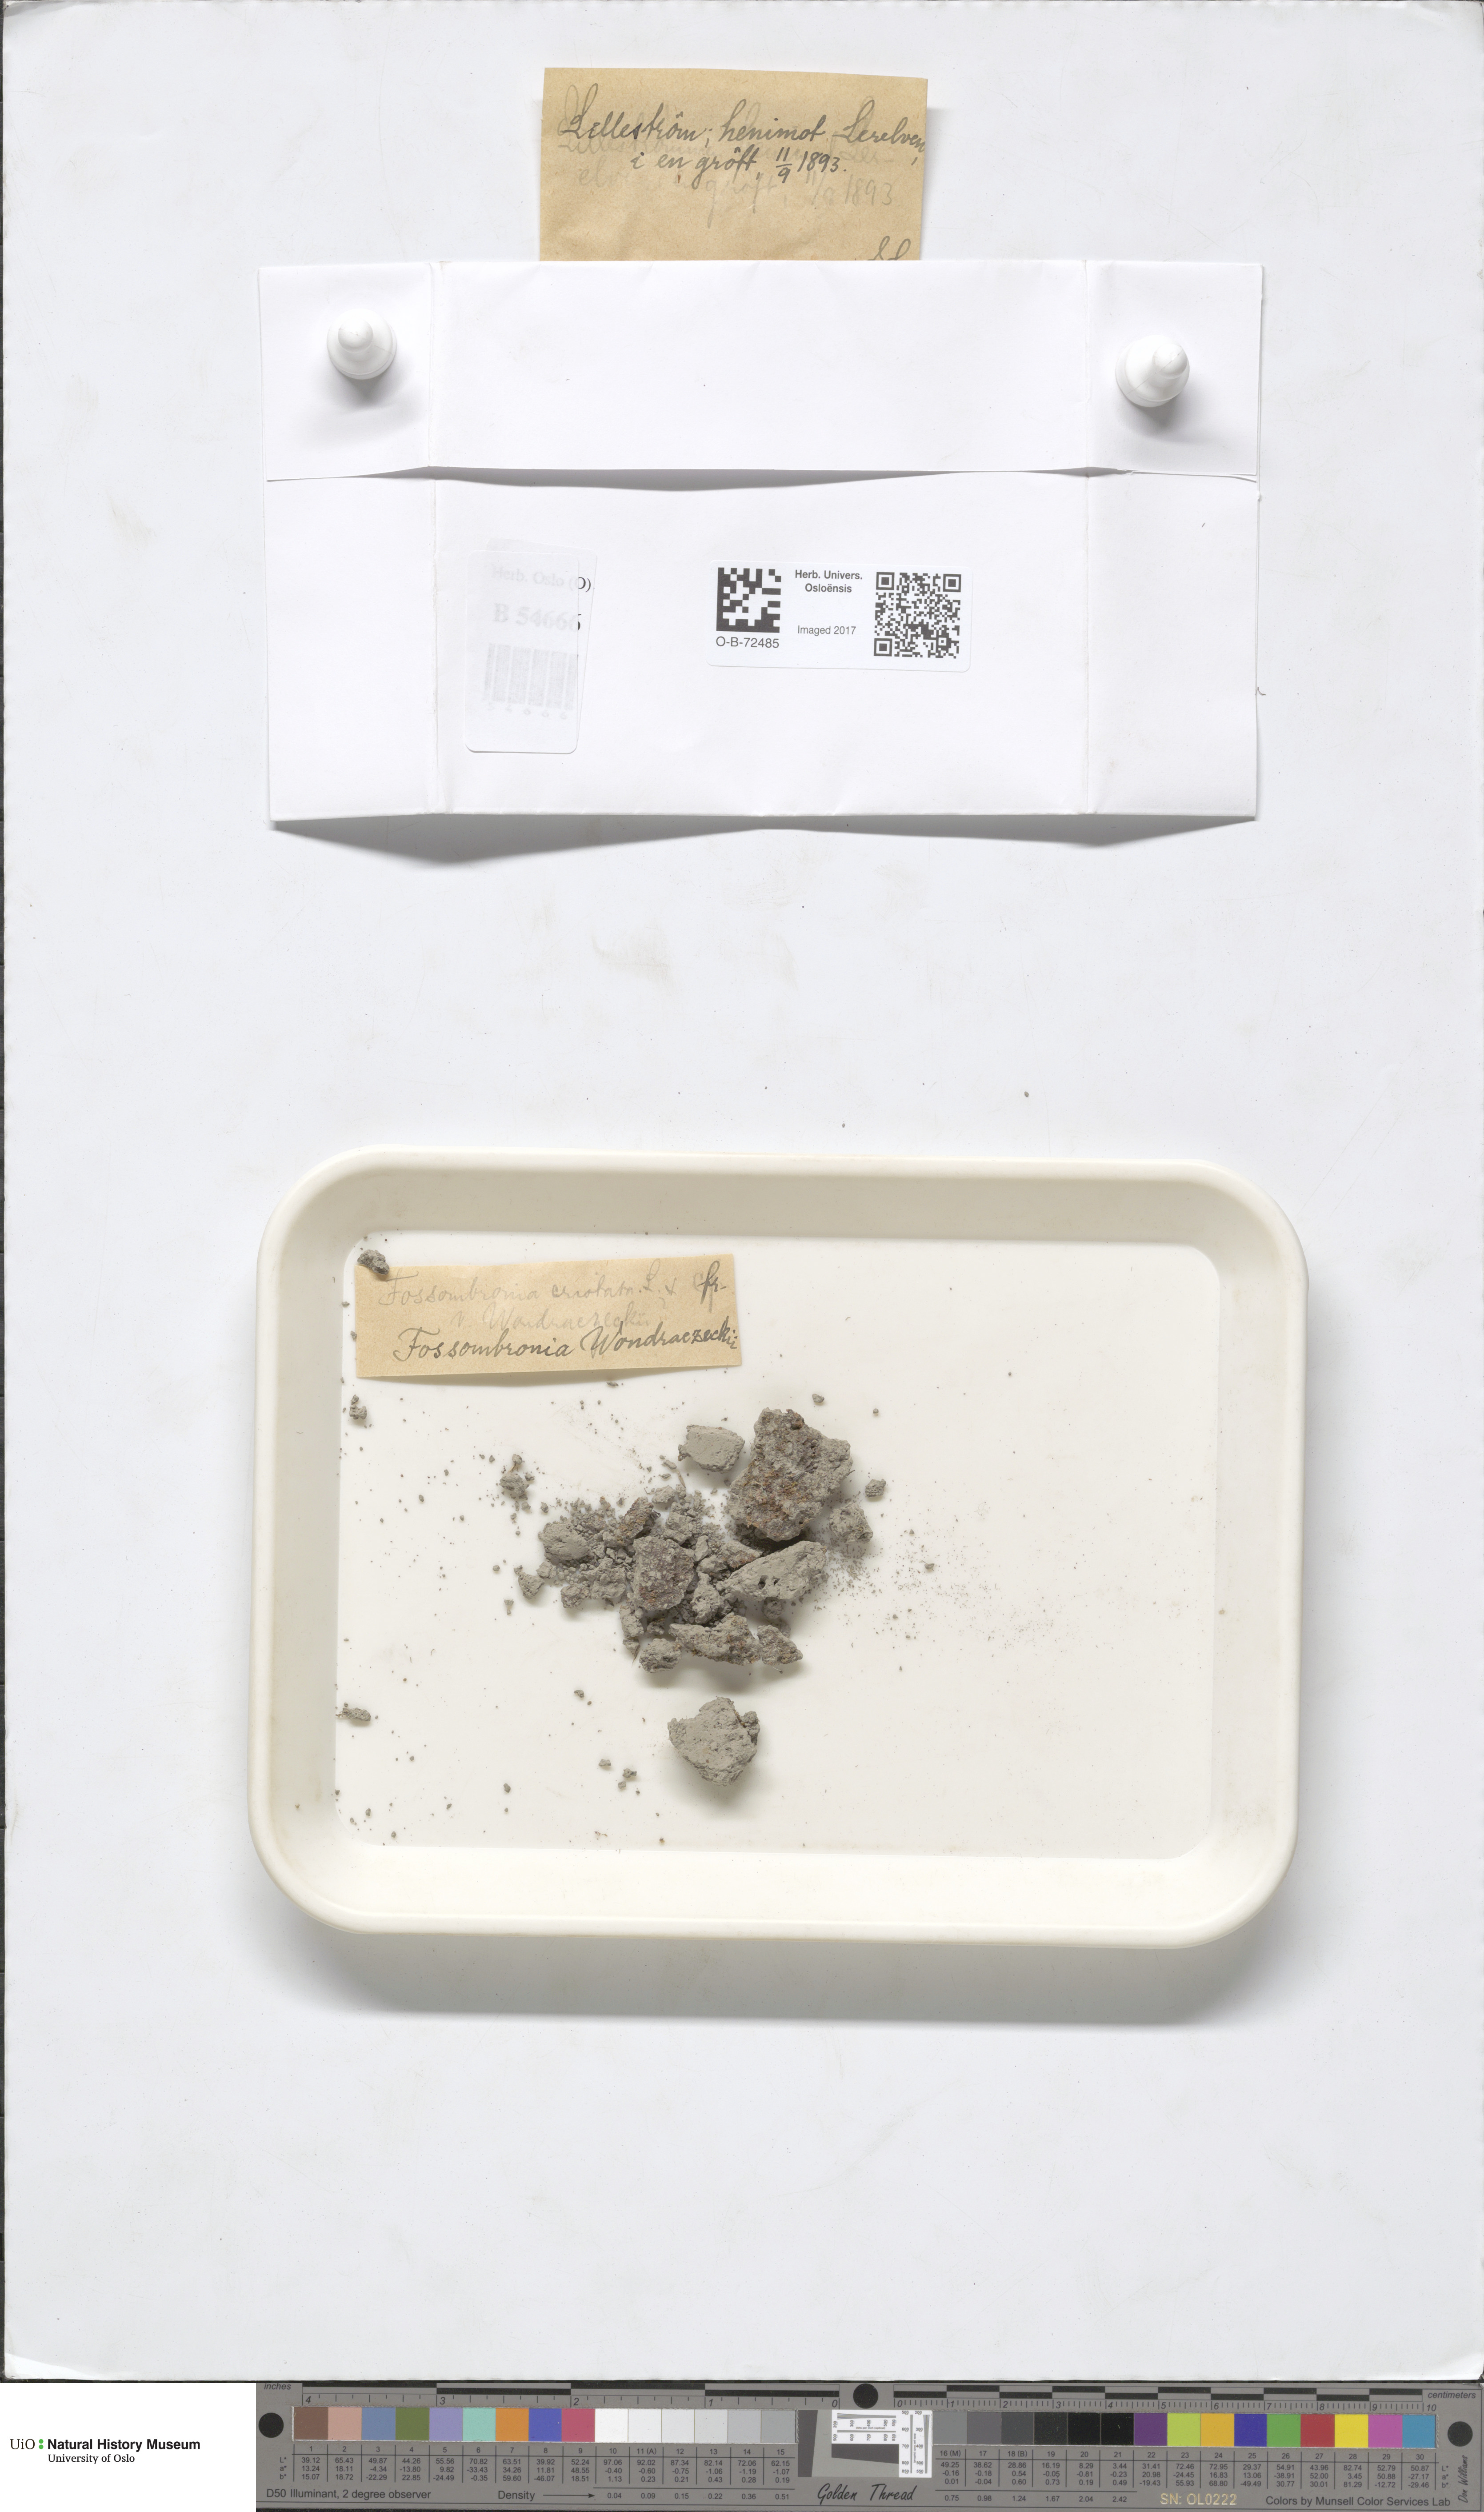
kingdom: Plantae
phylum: Marchantiophyta
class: Jungermanniopsida
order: Fossombroniales
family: Fossombroniaceae
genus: Fossombronia
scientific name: Fossombronia wondraczekii
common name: Acid frillwort
